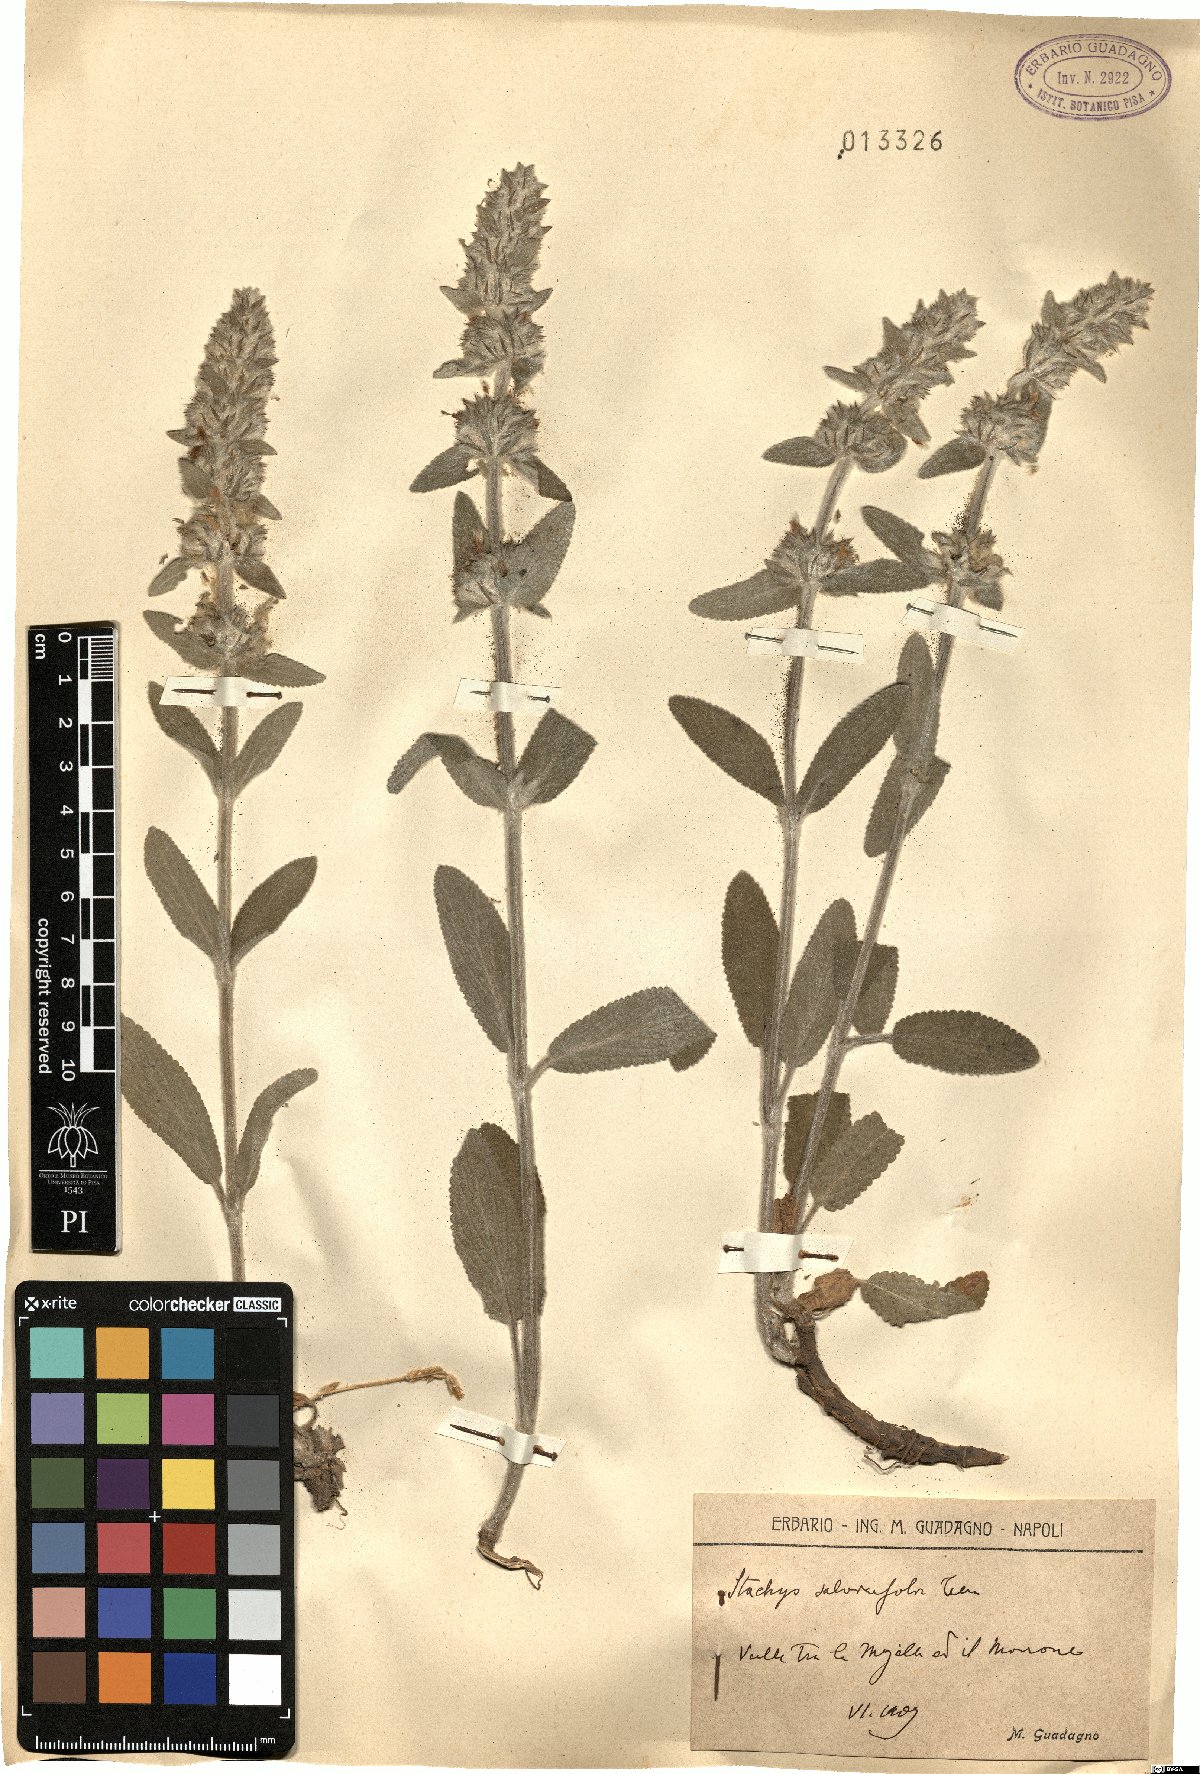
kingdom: Plantae
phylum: Tracheophyta
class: Magnoliopsida
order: Lamiales
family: Lamiaceae
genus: Stachys
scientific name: Stachys cretica
